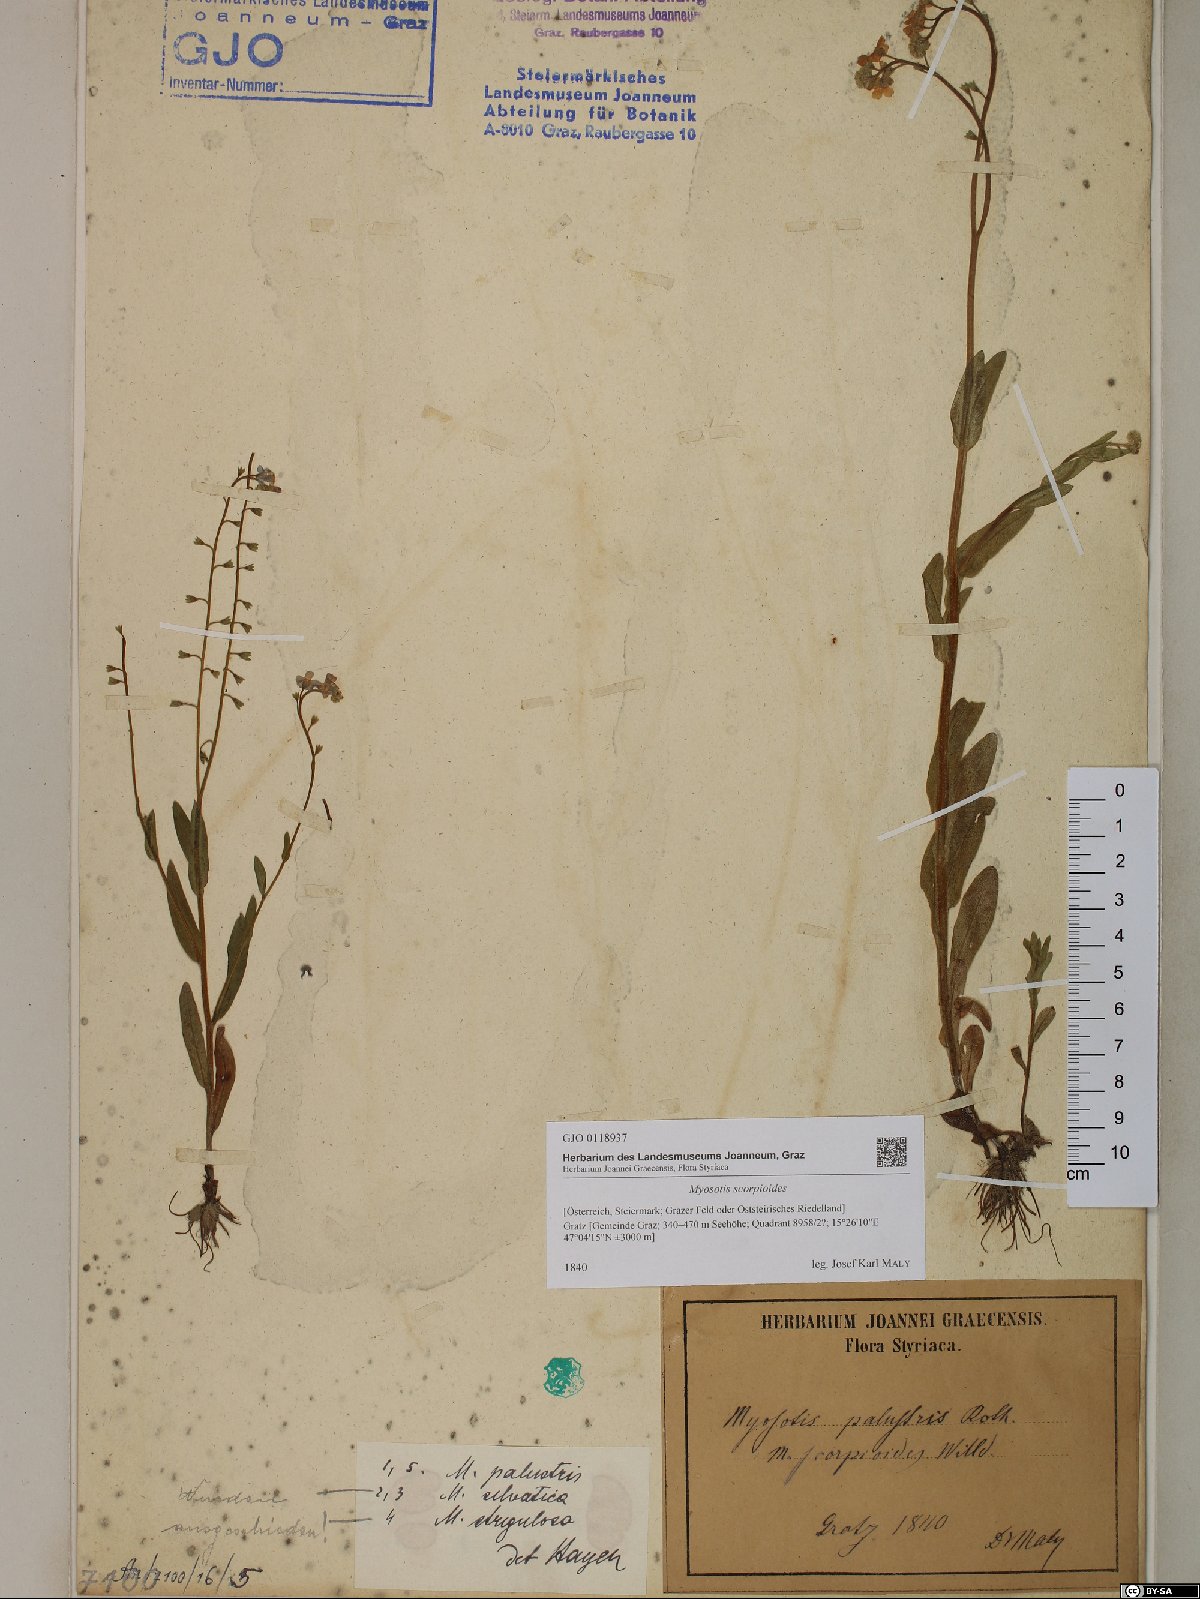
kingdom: Plantae
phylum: Tracheophyta
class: Magnoliopsida
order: Boraginales
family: Boraginaceae
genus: Myosotis
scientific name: Myosotis scorpioides
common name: Water forget-me-not
